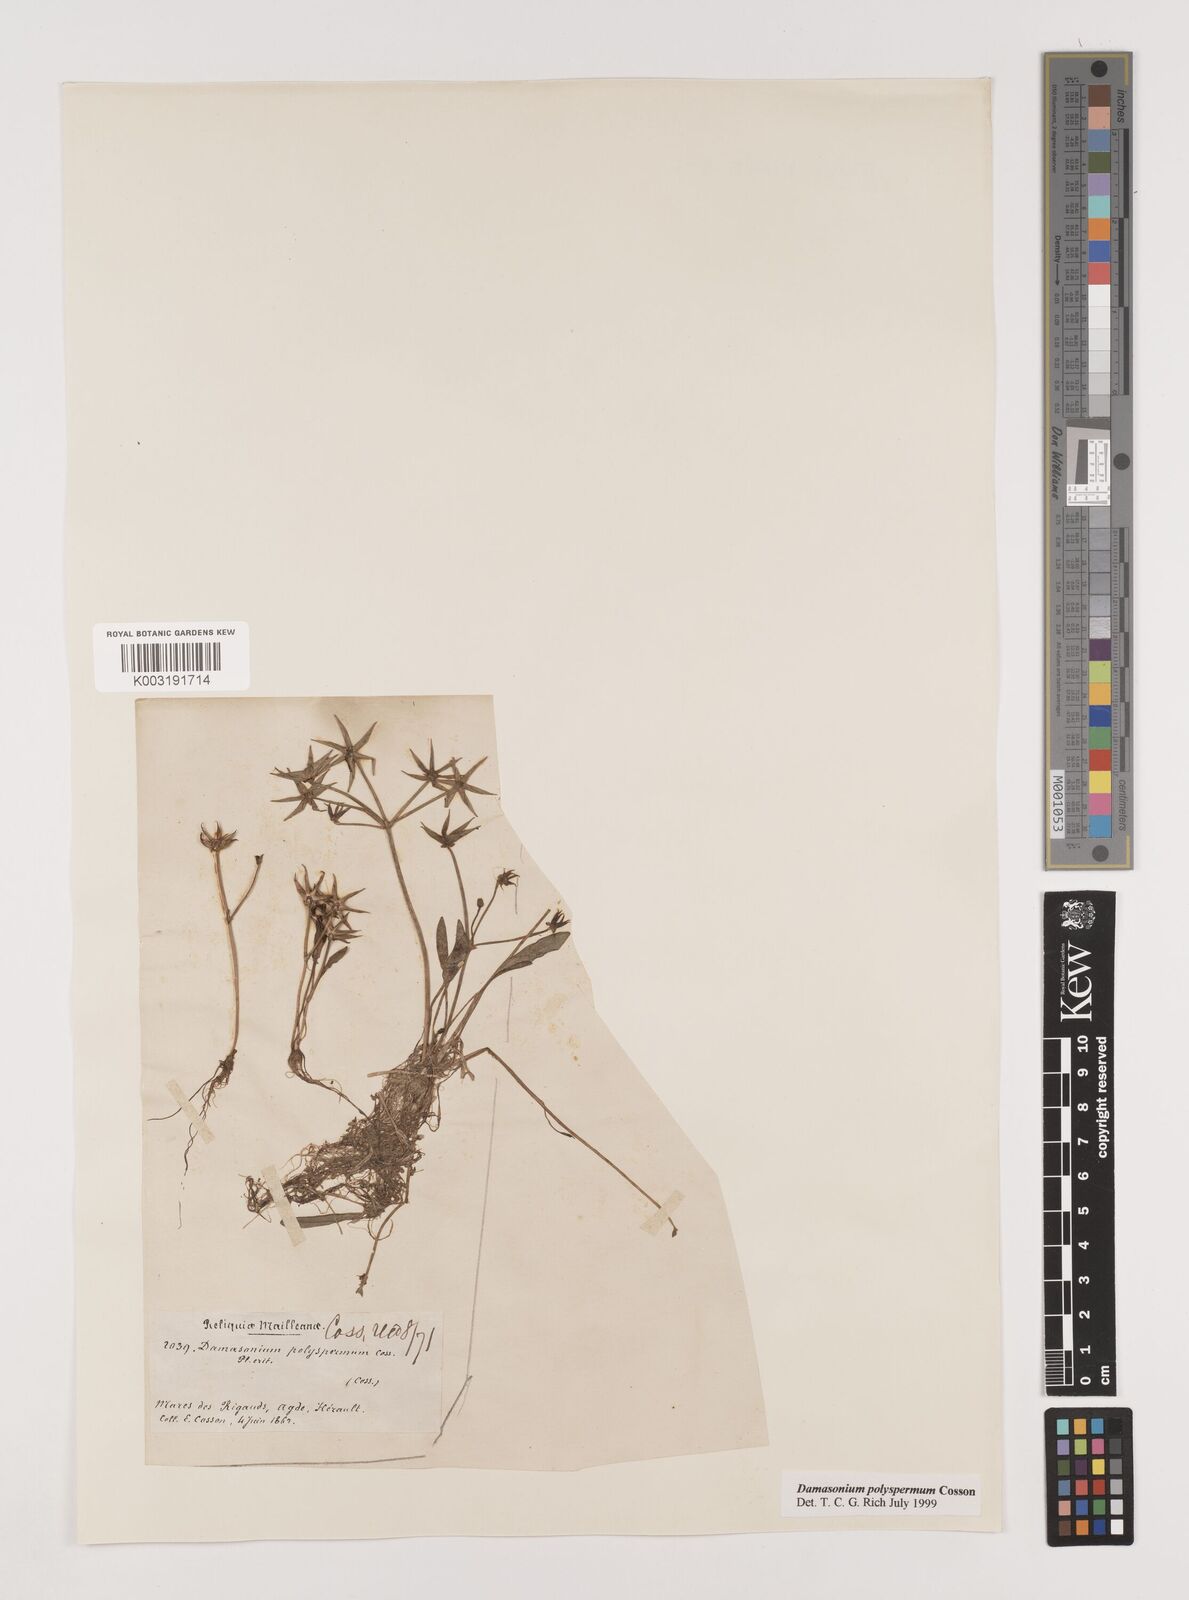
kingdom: Plantae
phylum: Tracheophyta
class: Liliopsida
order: Alismatales
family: Alismataceae
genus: Damasonium
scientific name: Damasonium polyspermum
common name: Starfruit
